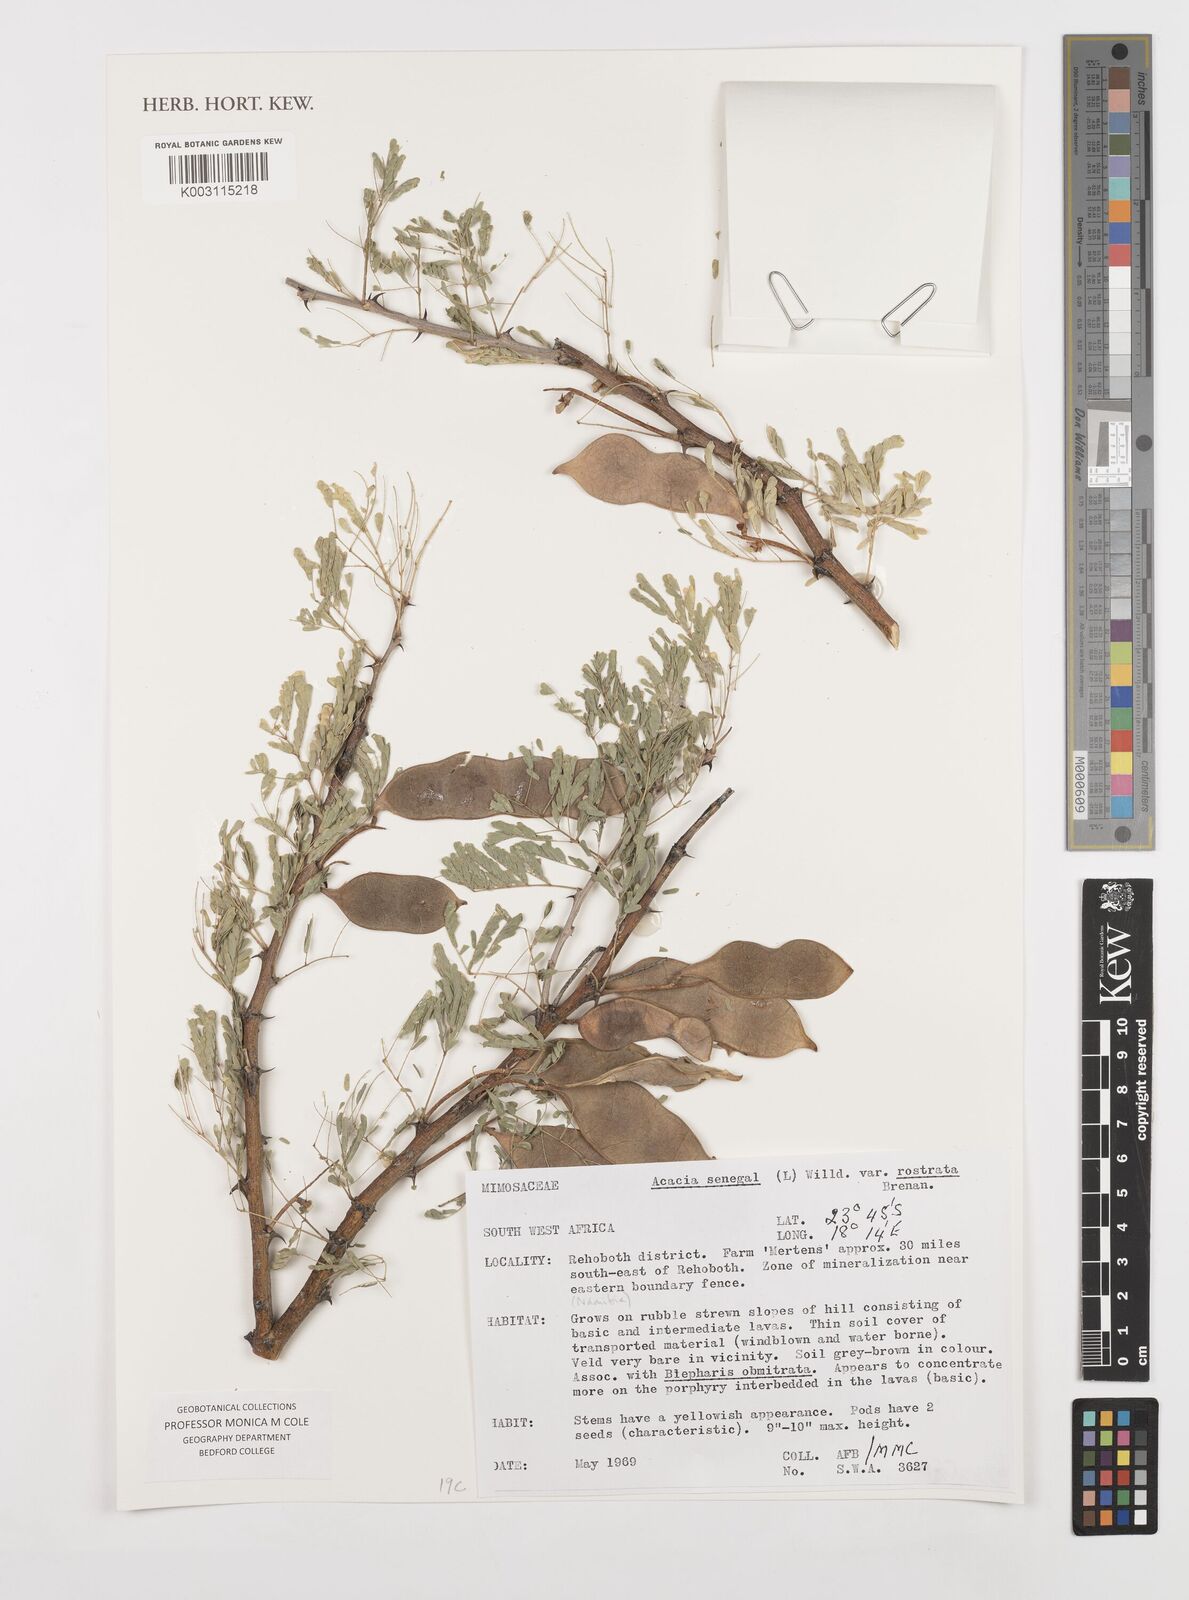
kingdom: Plantae
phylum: Tracheophyta
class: Magnoliopsida
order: Fabales
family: Fabaceae
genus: Senegalia
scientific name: Senegalia senegal
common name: Senegal-gum
